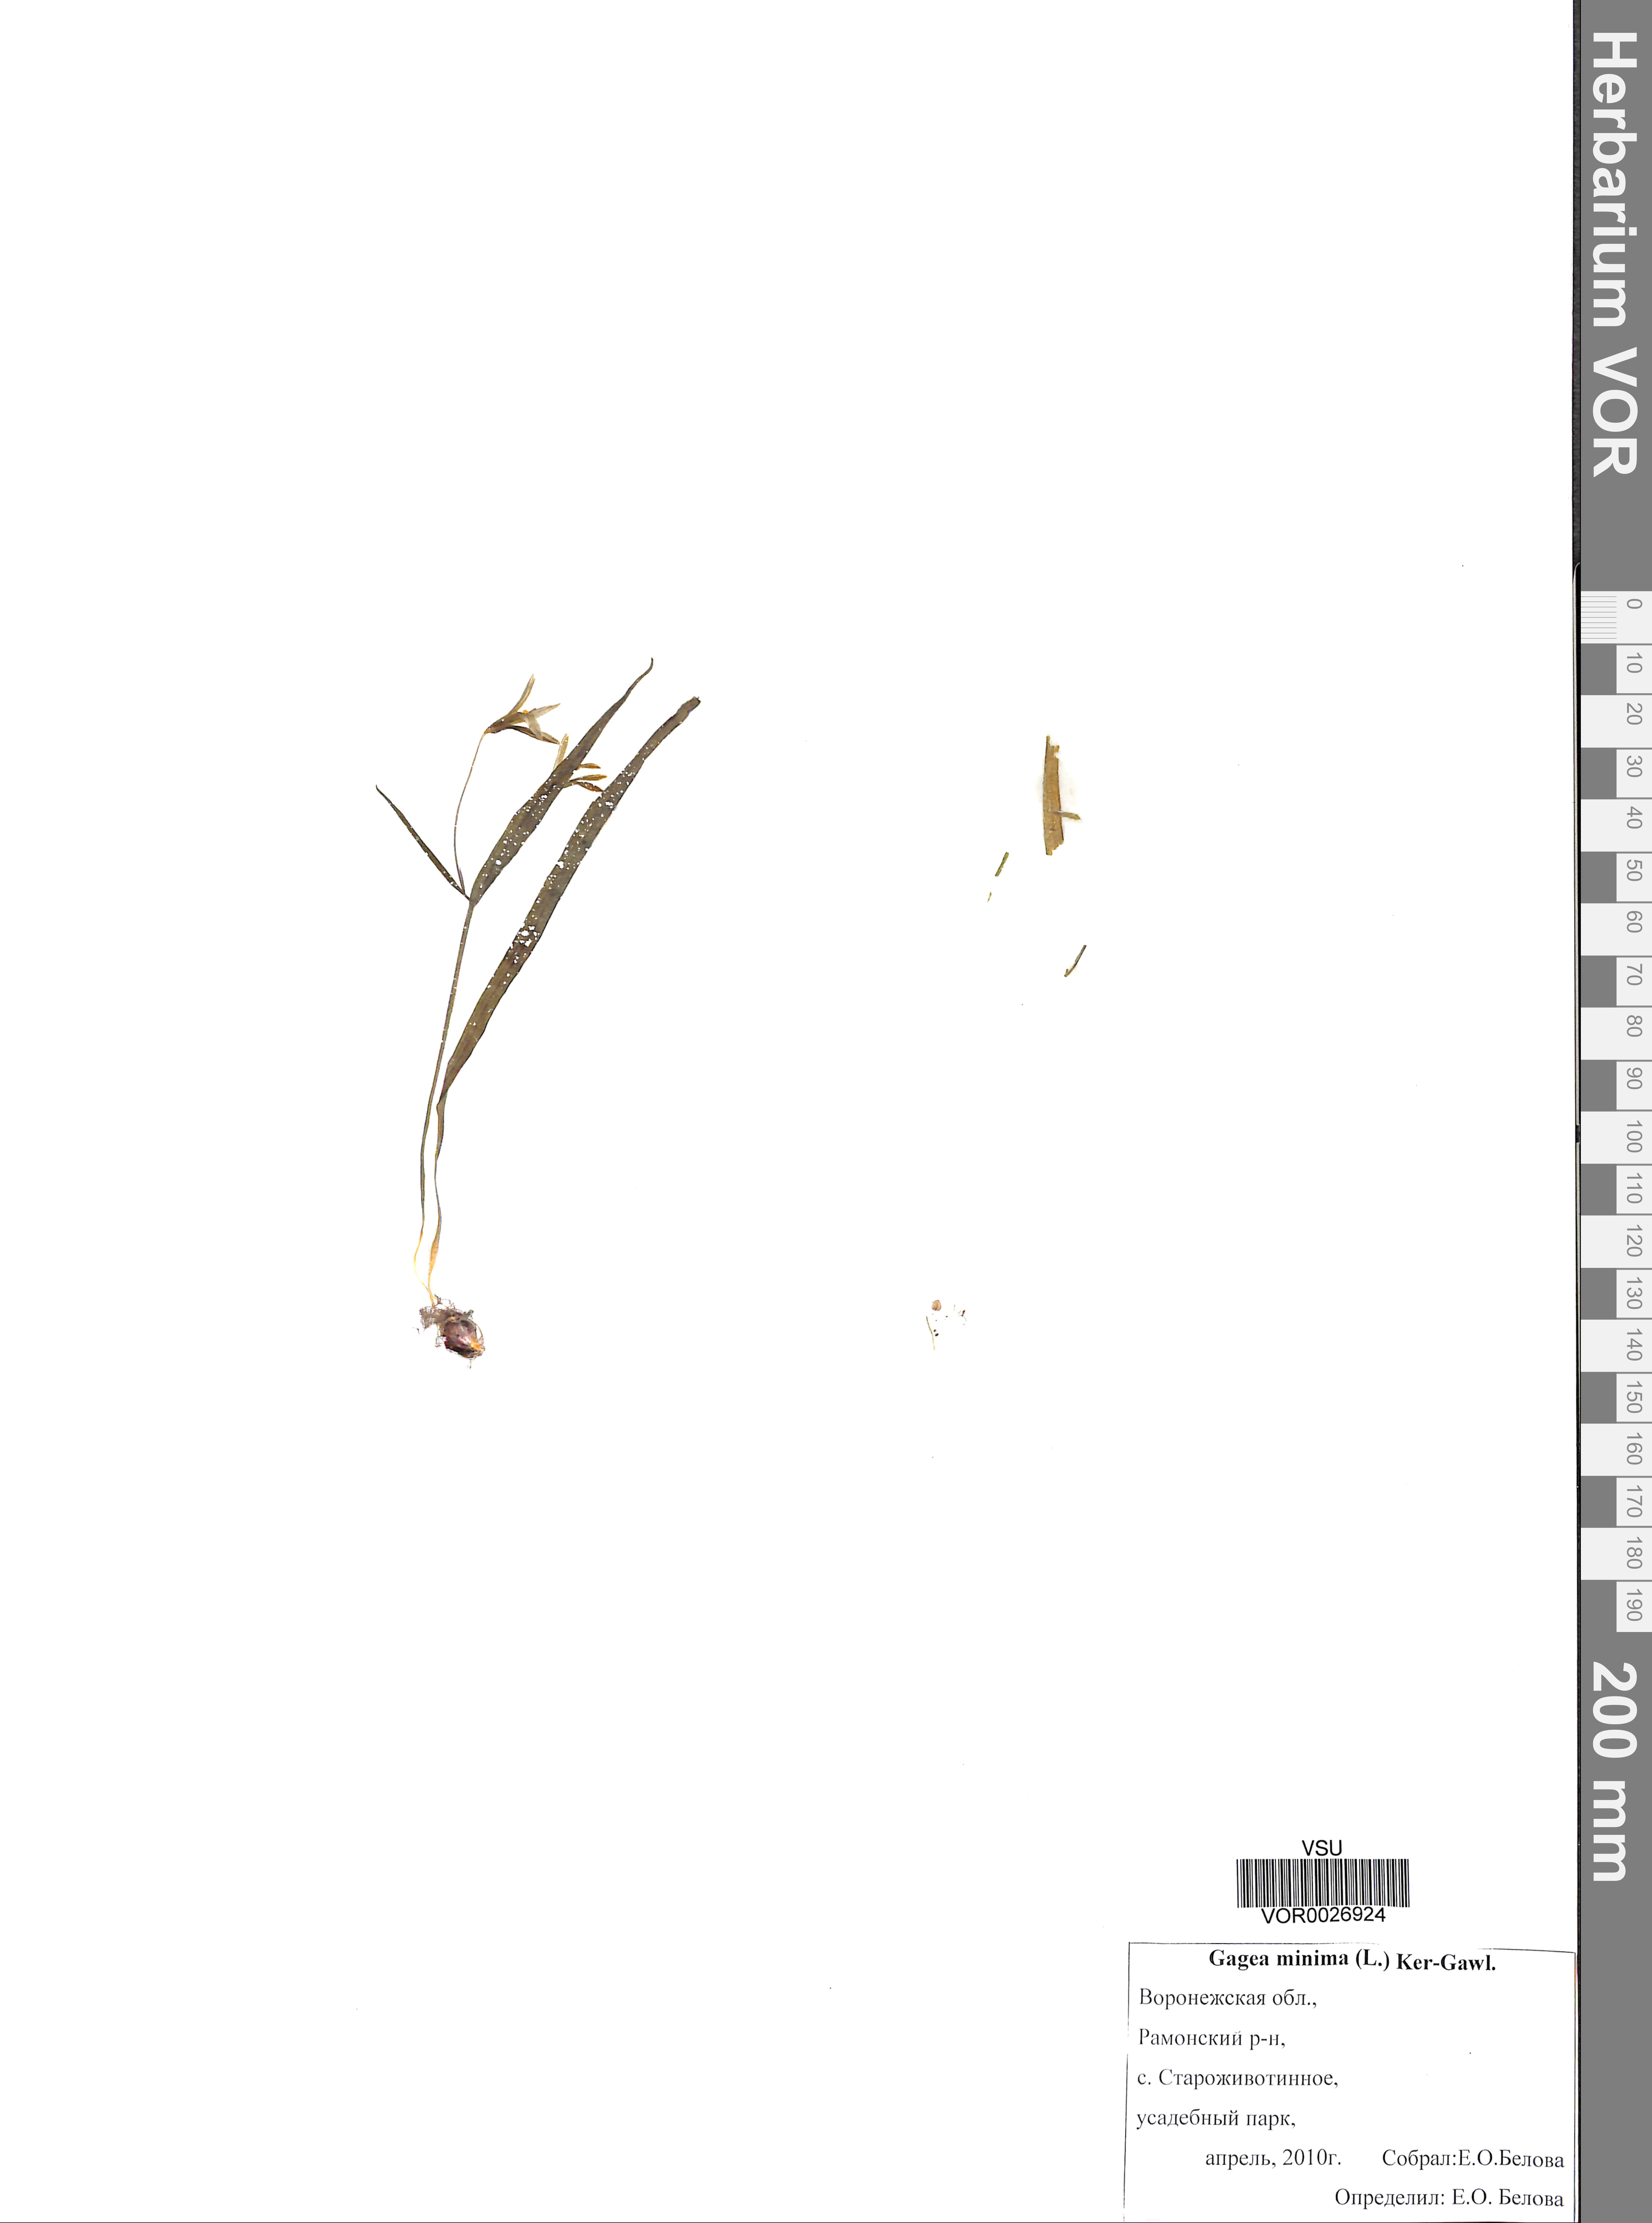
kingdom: Plantae
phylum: Tracheophyta
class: Liliopsida
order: Liliales
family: Liliaceae
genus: Gagea
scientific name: Gagea minima
